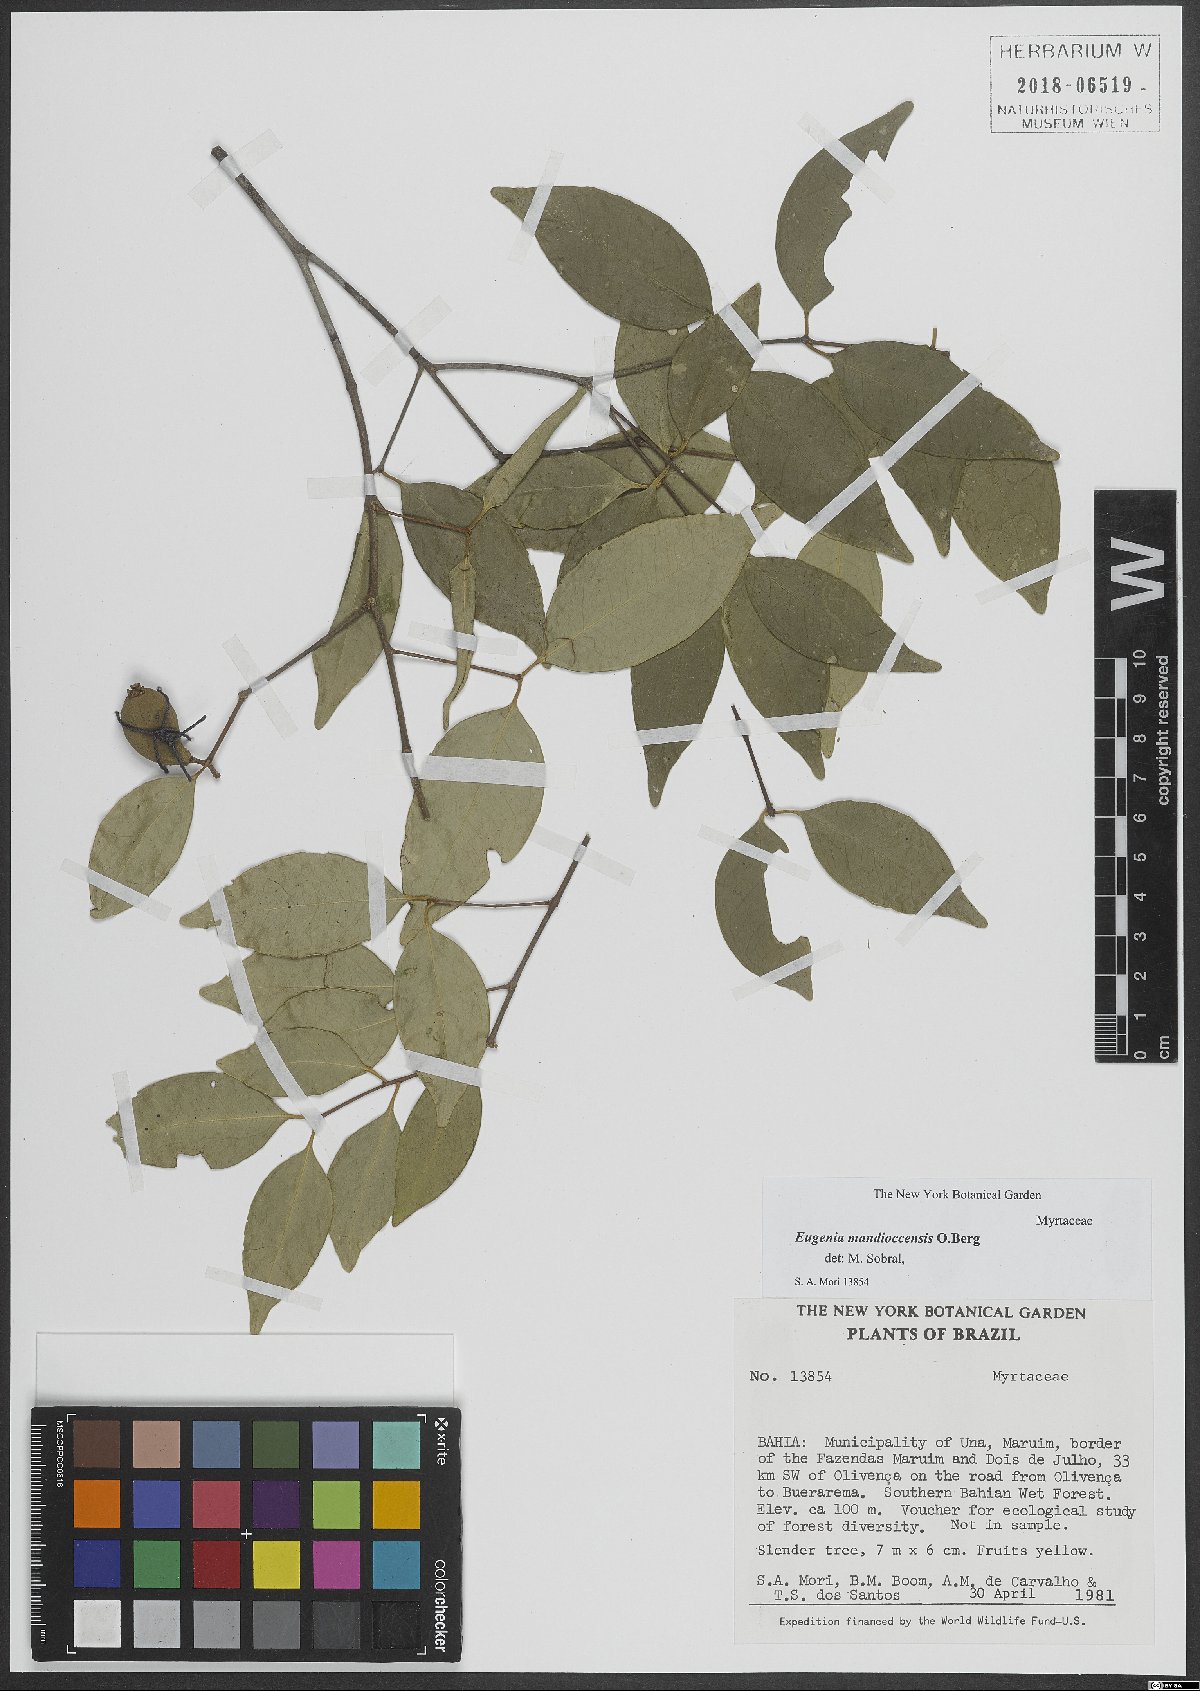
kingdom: Plantae
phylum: Tracheophyta
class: Magnoliopsida
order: Myrtales
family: Myrtaceae
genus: Eugenia
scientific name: Eugenia mandioccensis
